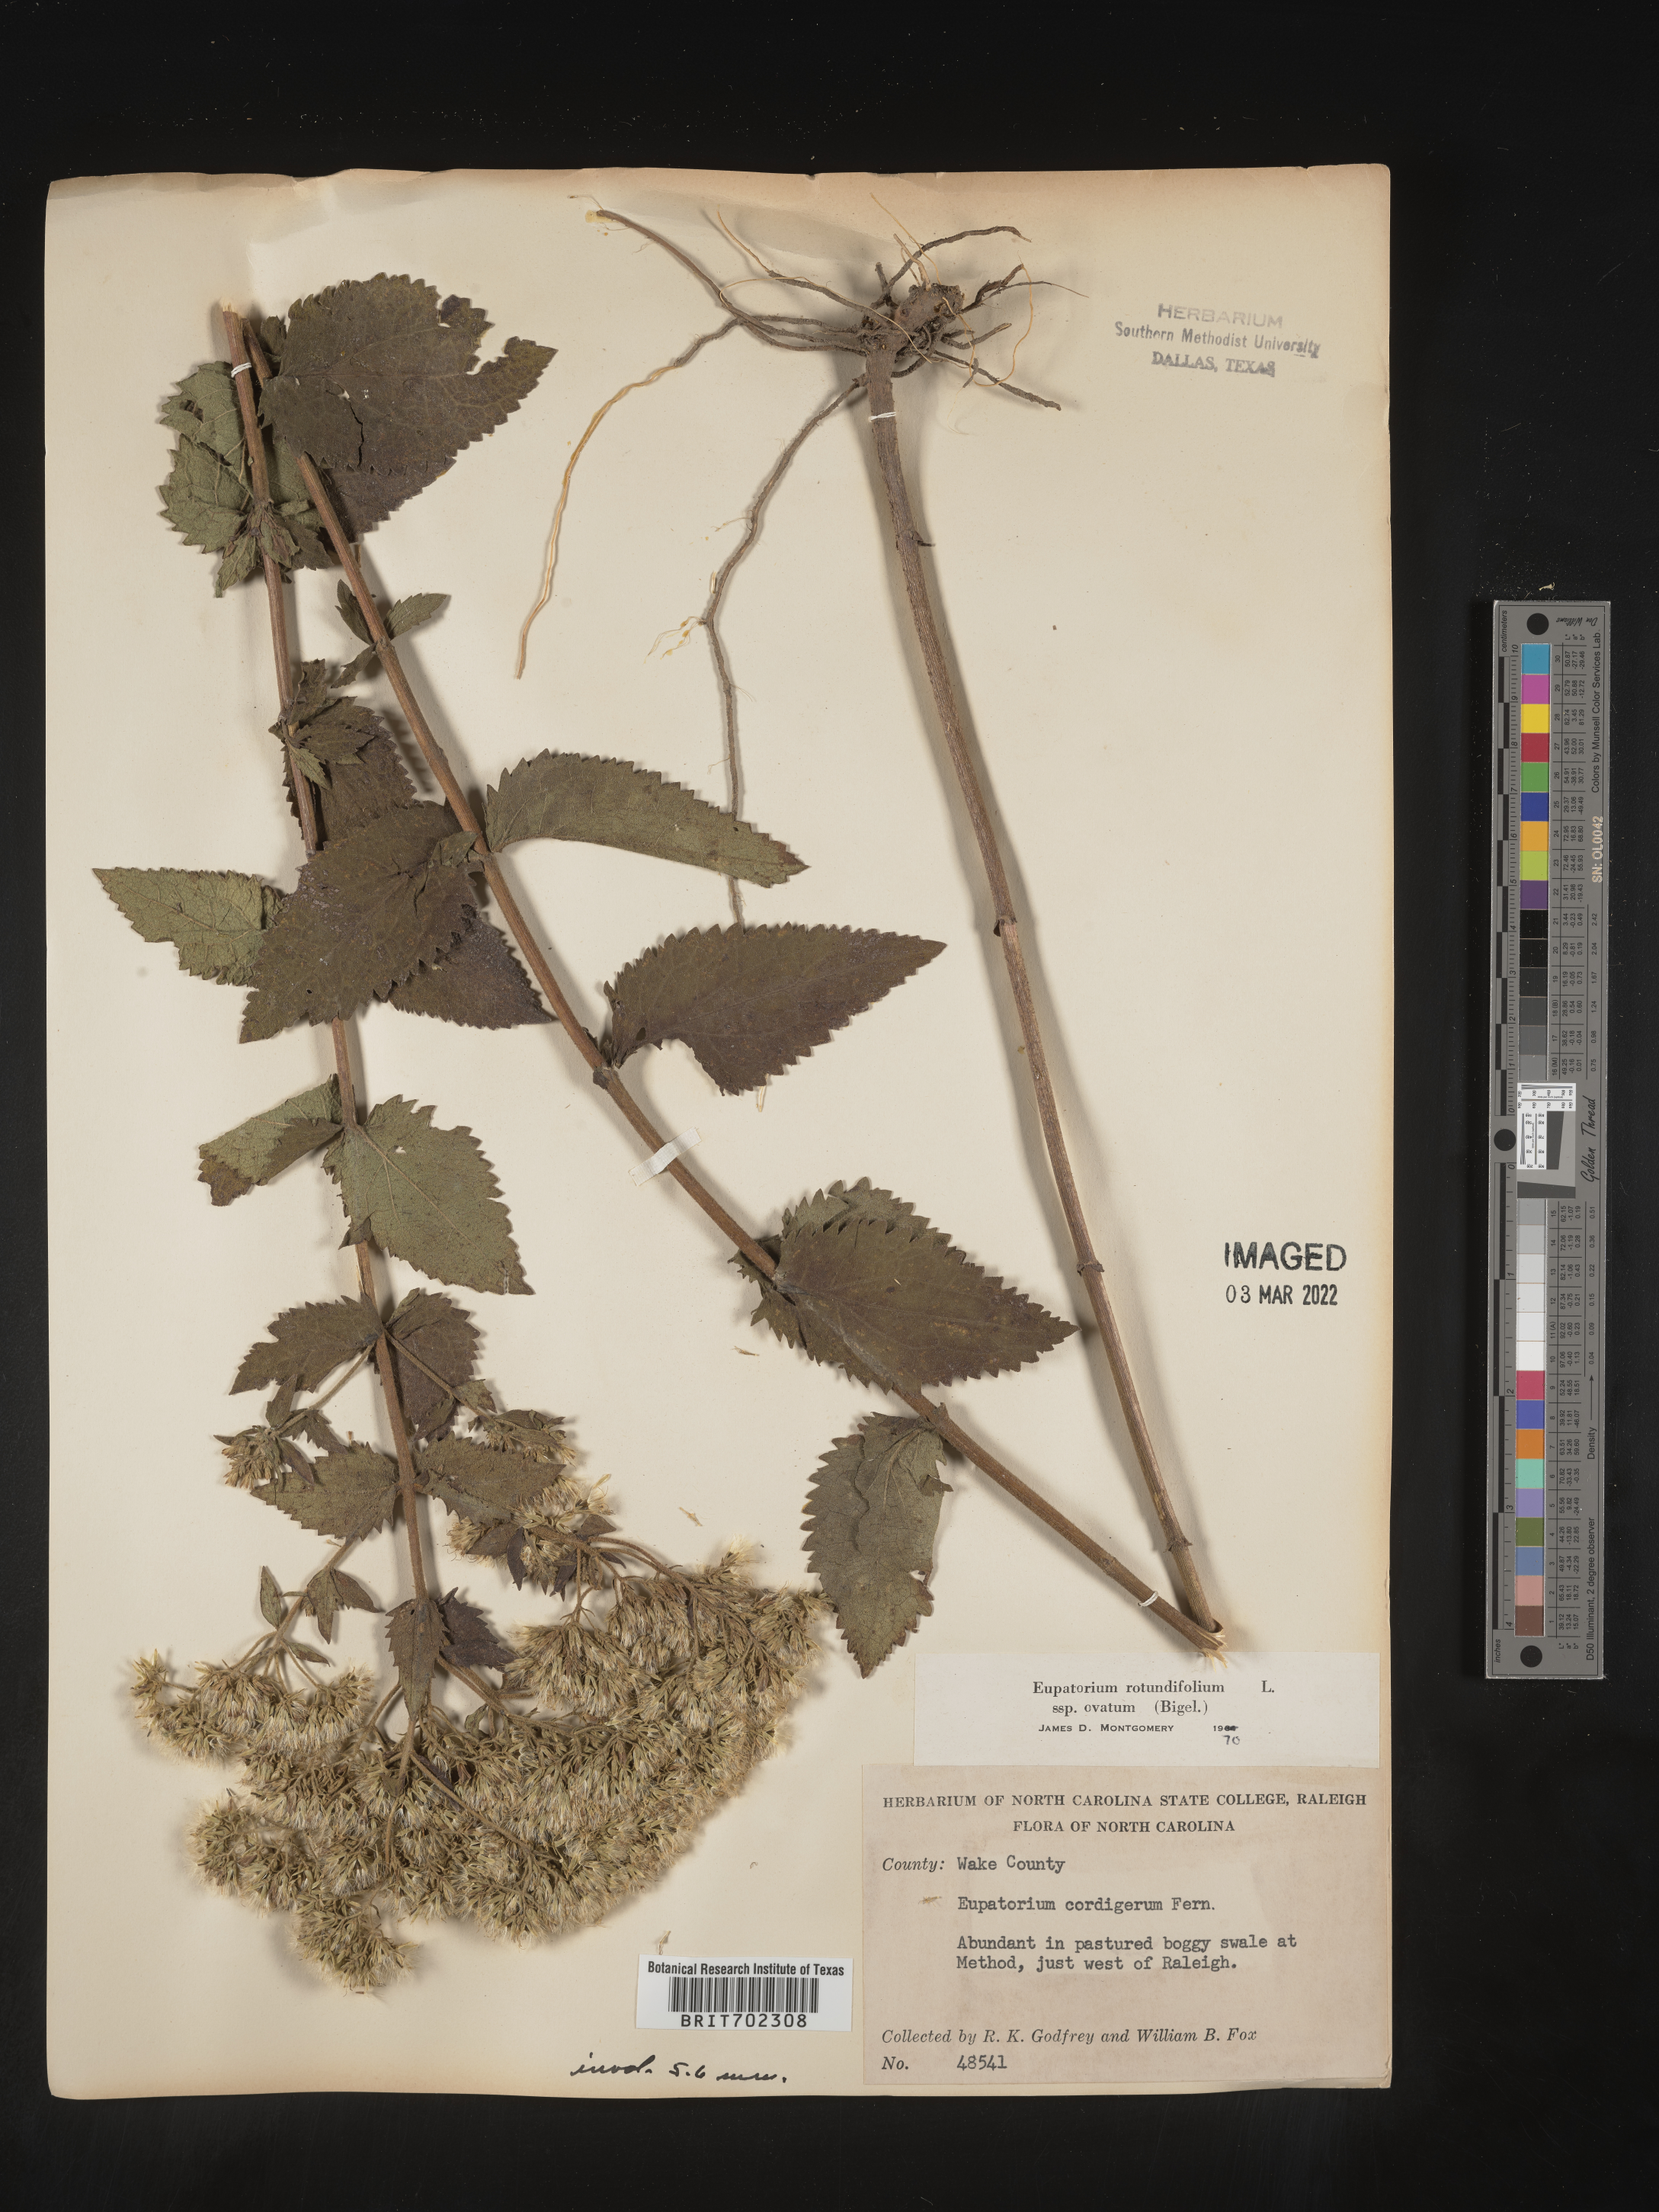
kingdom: Plantae
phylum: Tracheophyta
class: Magnoliopsida
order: Asterales
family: Asteraceae
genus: Eupatorium
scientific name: Eupatorium rotundifolium
